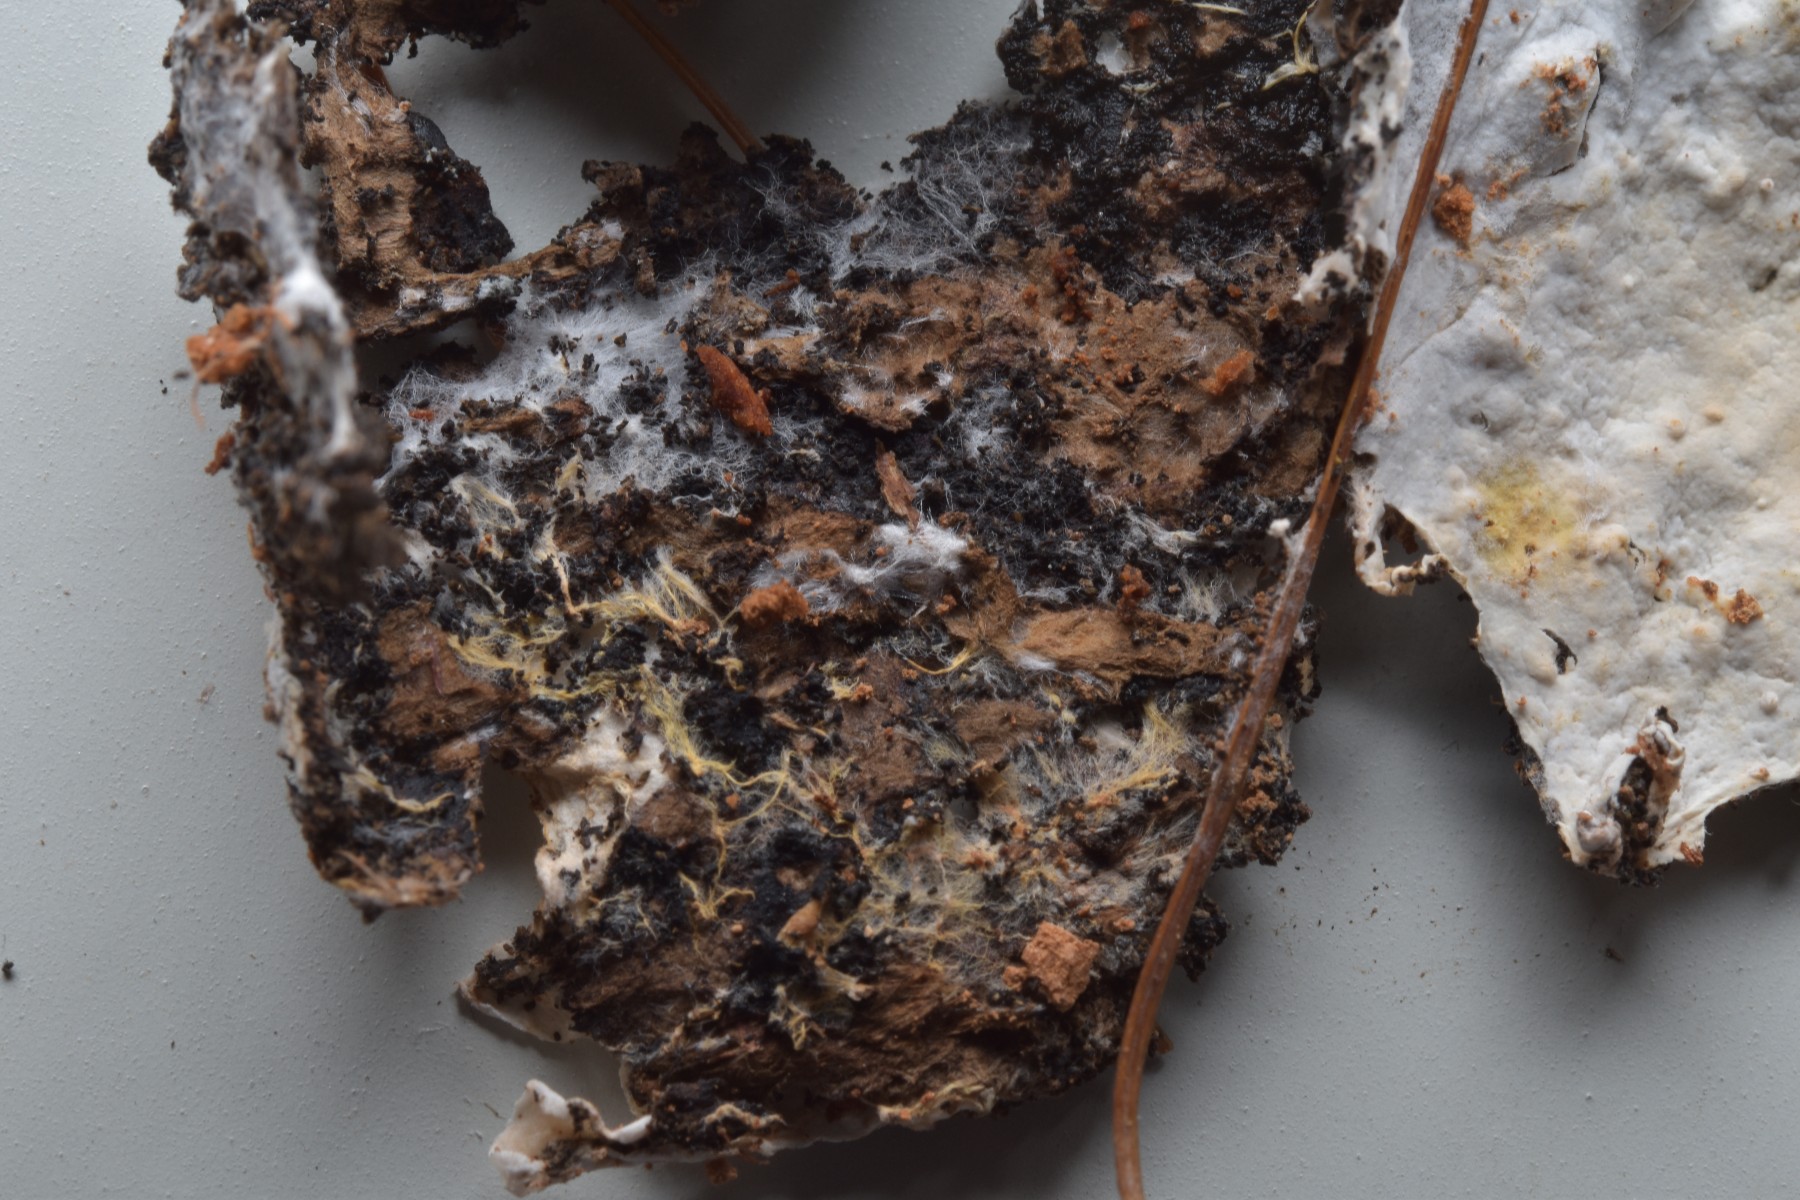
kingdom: Fungi
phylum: Basidiomycota
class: Agaricomycetes
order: Atheliales
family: Atheliaceae
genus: Leptosporomyces
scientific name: Leptosporomyces fuscostratus
